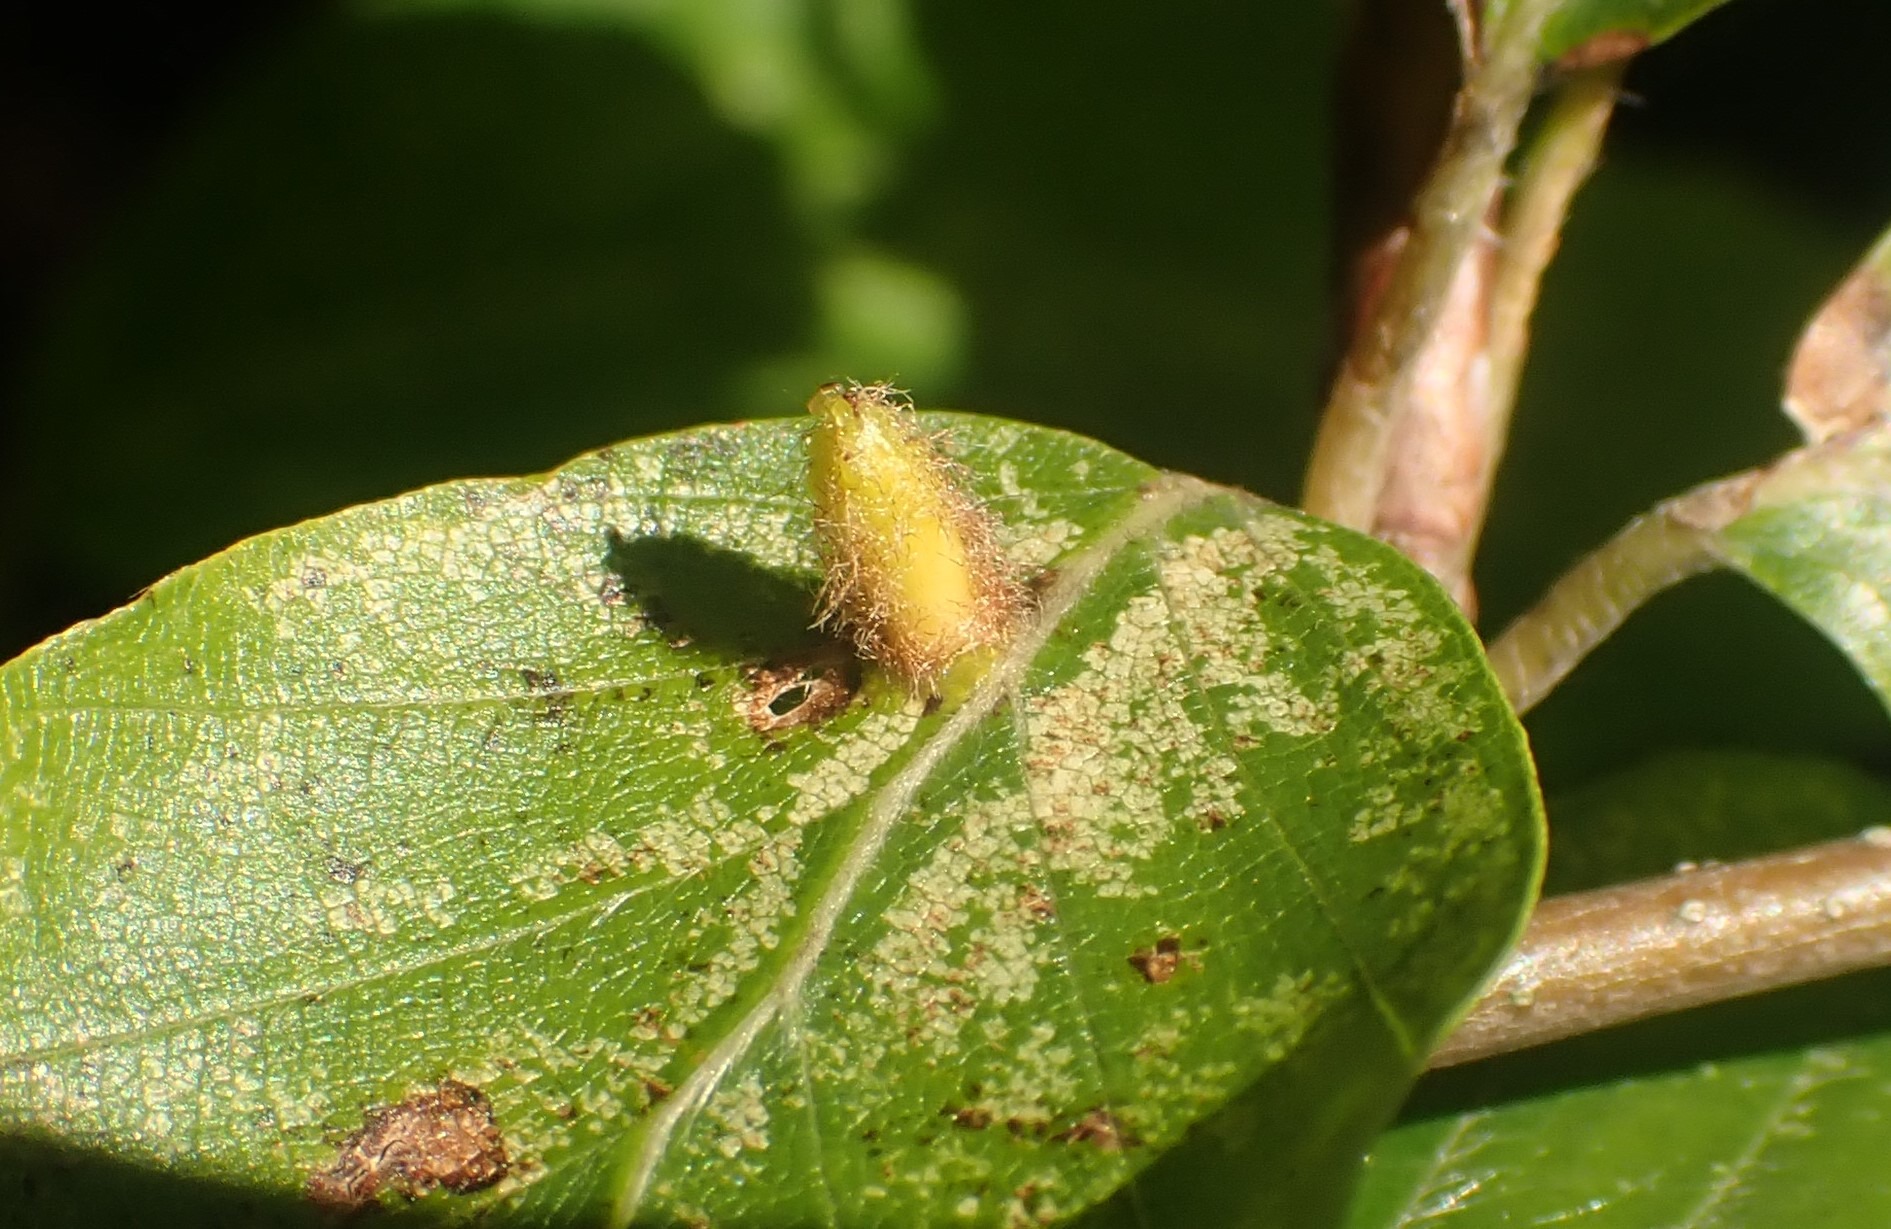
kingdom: Animalia
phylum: Arthropoda
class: Insecta
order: Diptera
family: Cecidomyiidae
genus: Hartigiola
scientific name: Hartigiola annulipes
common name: Skovtroldegalmyg
